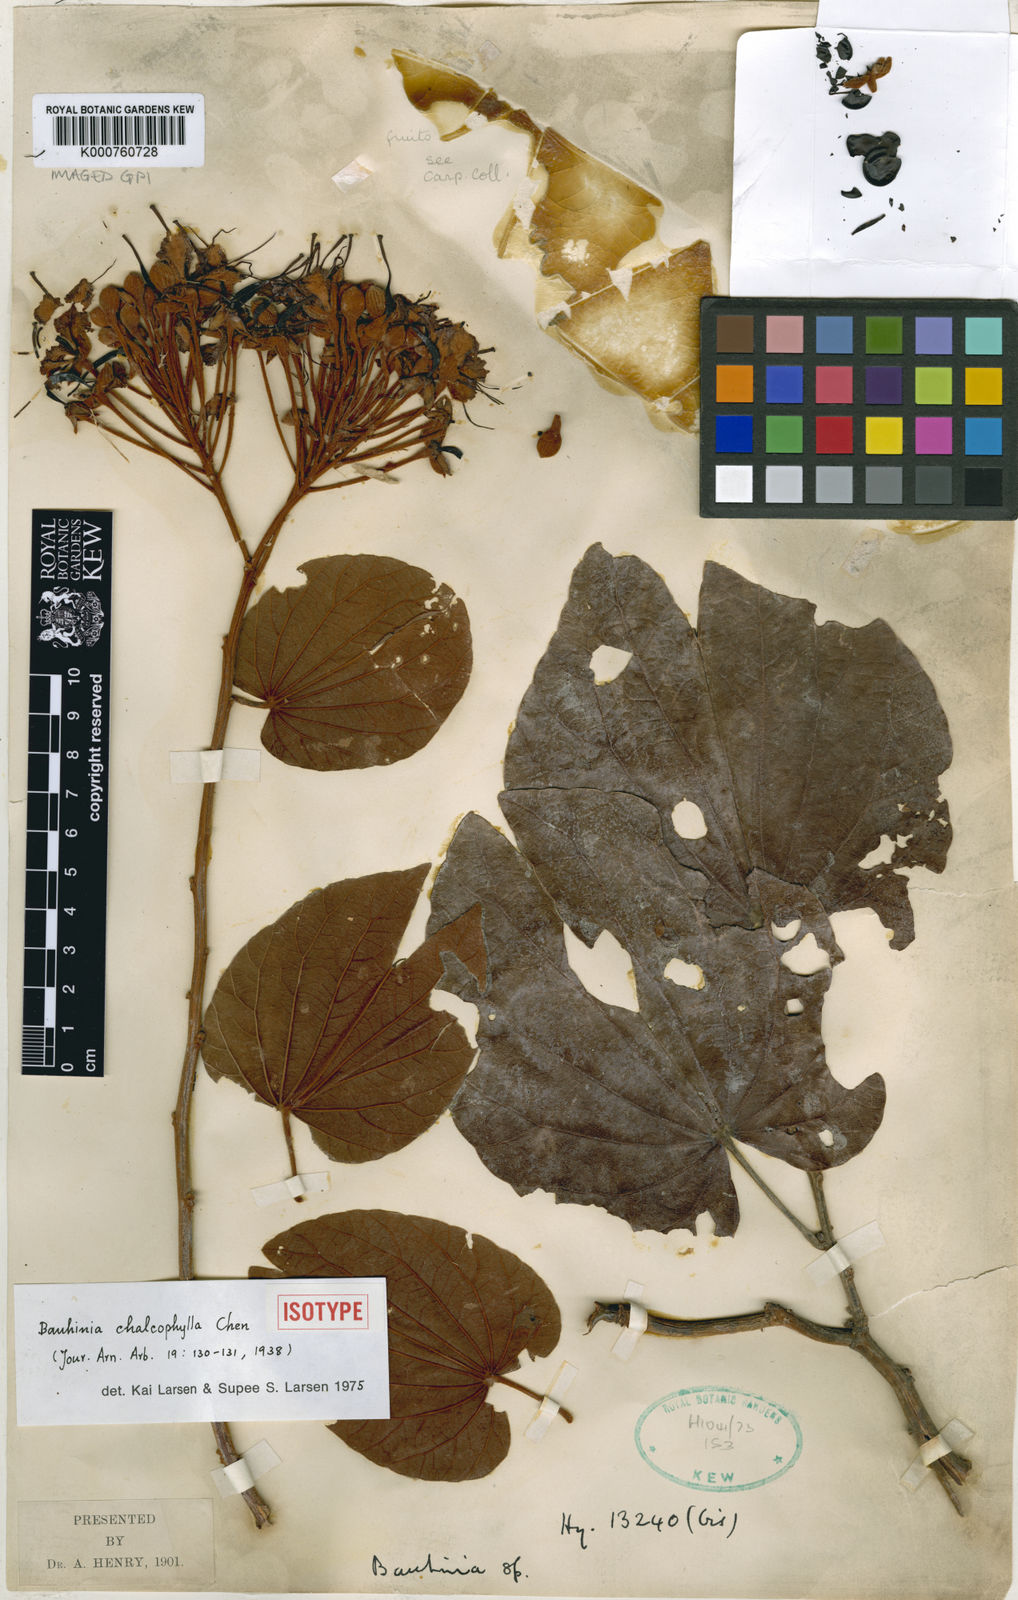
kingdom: Plantae
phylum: Tracheophyta
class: Magnoliopsida
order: Fabales
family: Fabaceae
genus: Phanera
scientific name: Phanera chalcophylla
